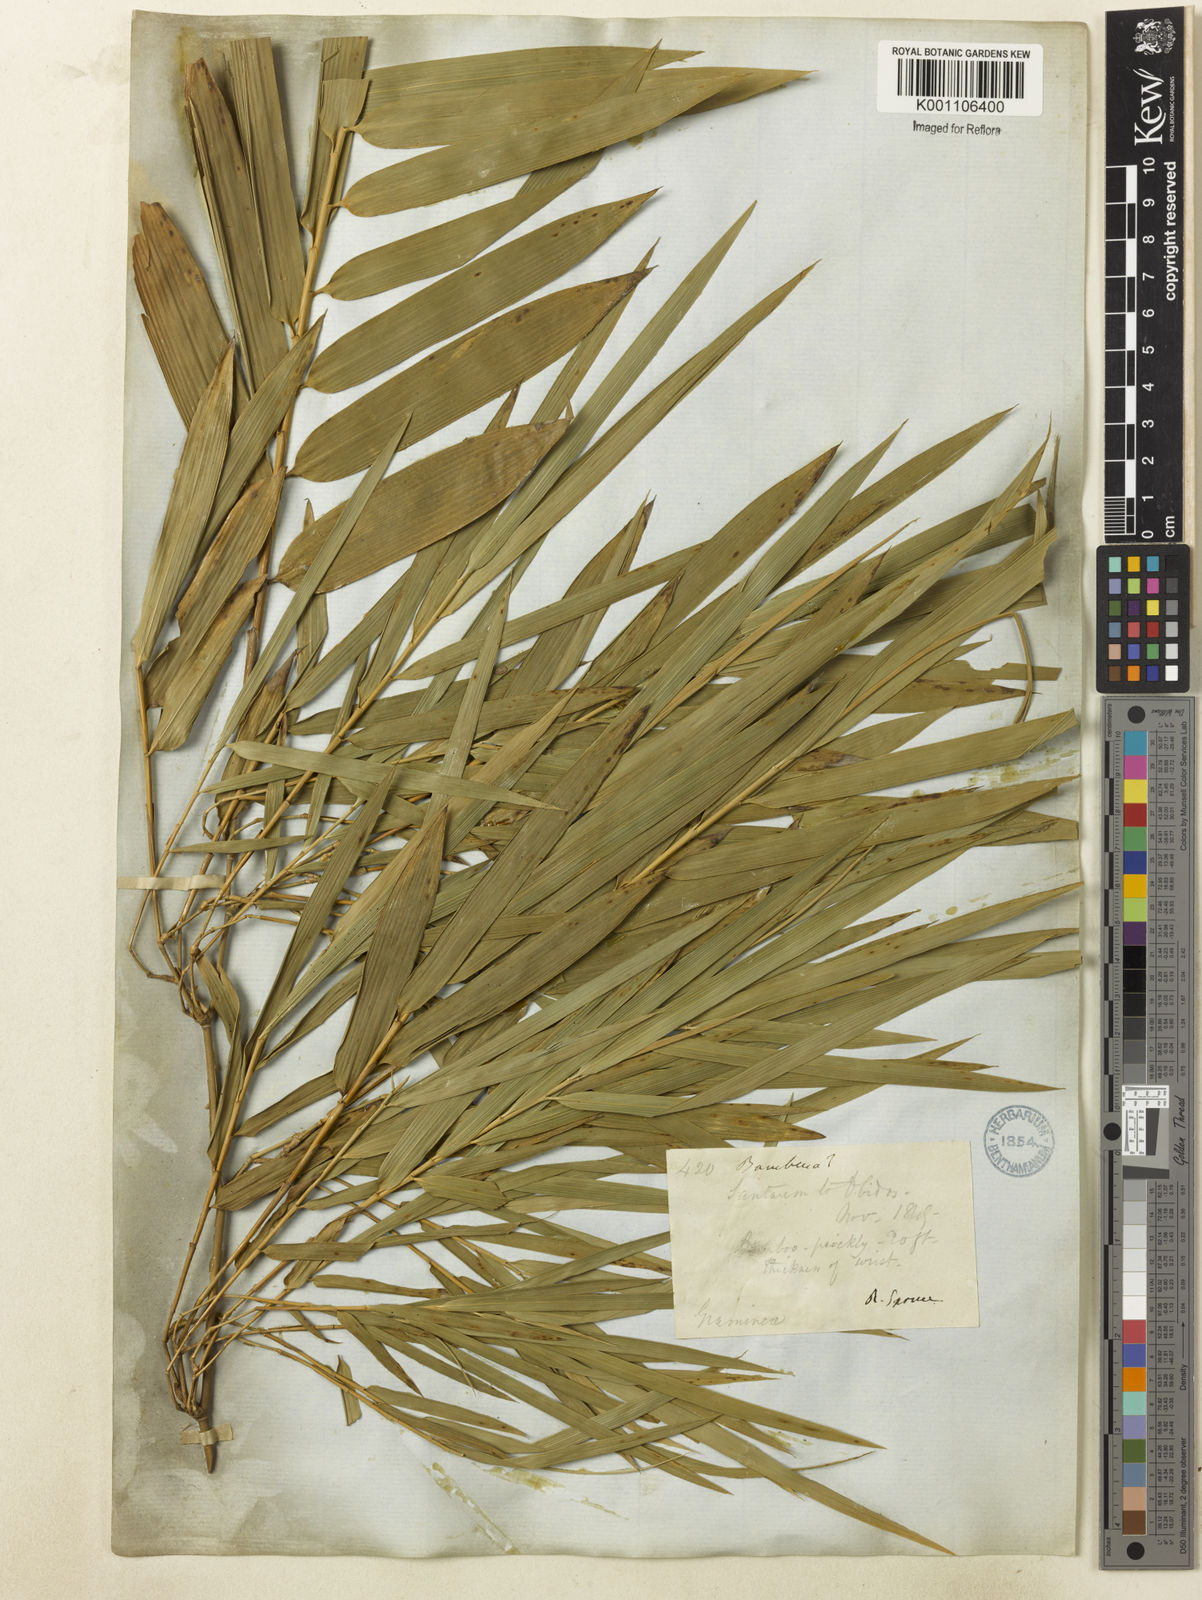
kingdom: Plantae
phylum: Tracheophyta
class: Liliopsida
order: Poales
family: Poaceae
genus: Guadua
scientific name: Guadua
